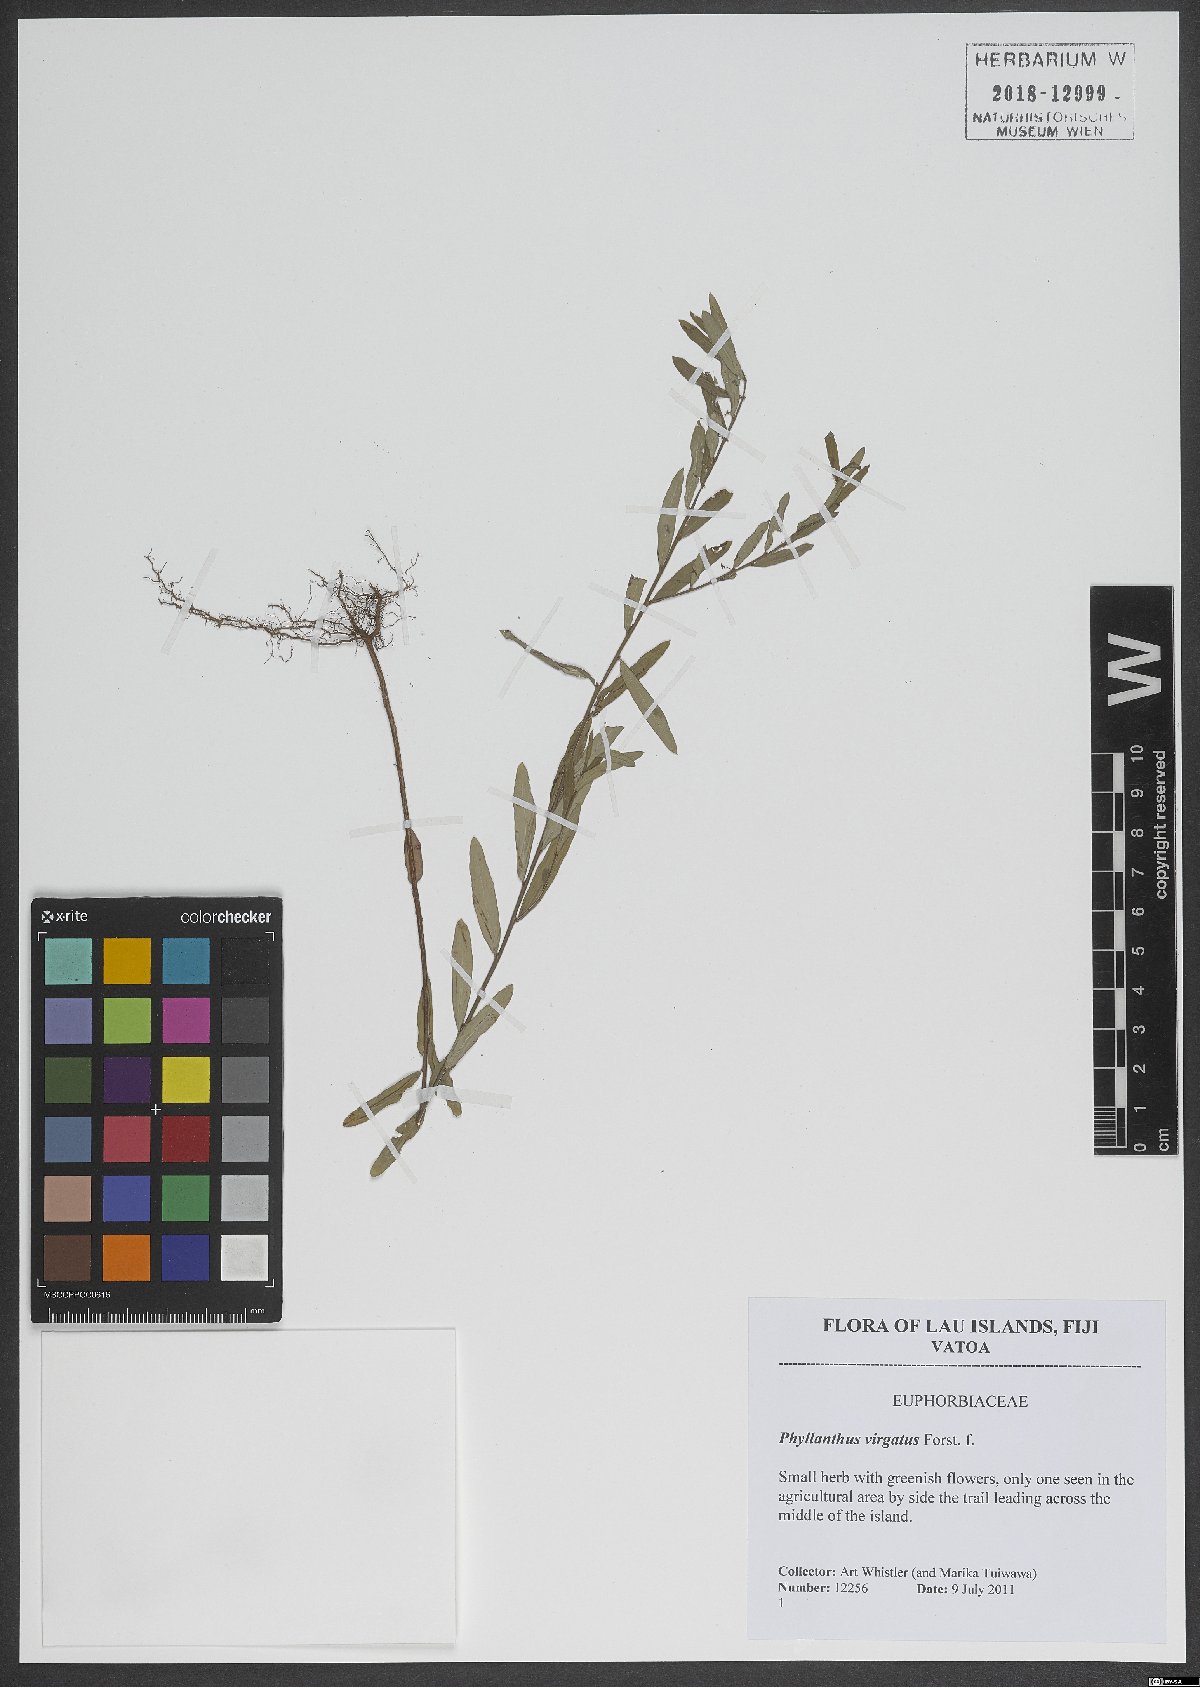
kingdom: Plantae
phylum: Tracheophyta
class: Magnoliopsida
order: Malpighiales
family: Phyllanthaceae
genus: Phyllanthus
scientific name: Phyllanthus virgatus
